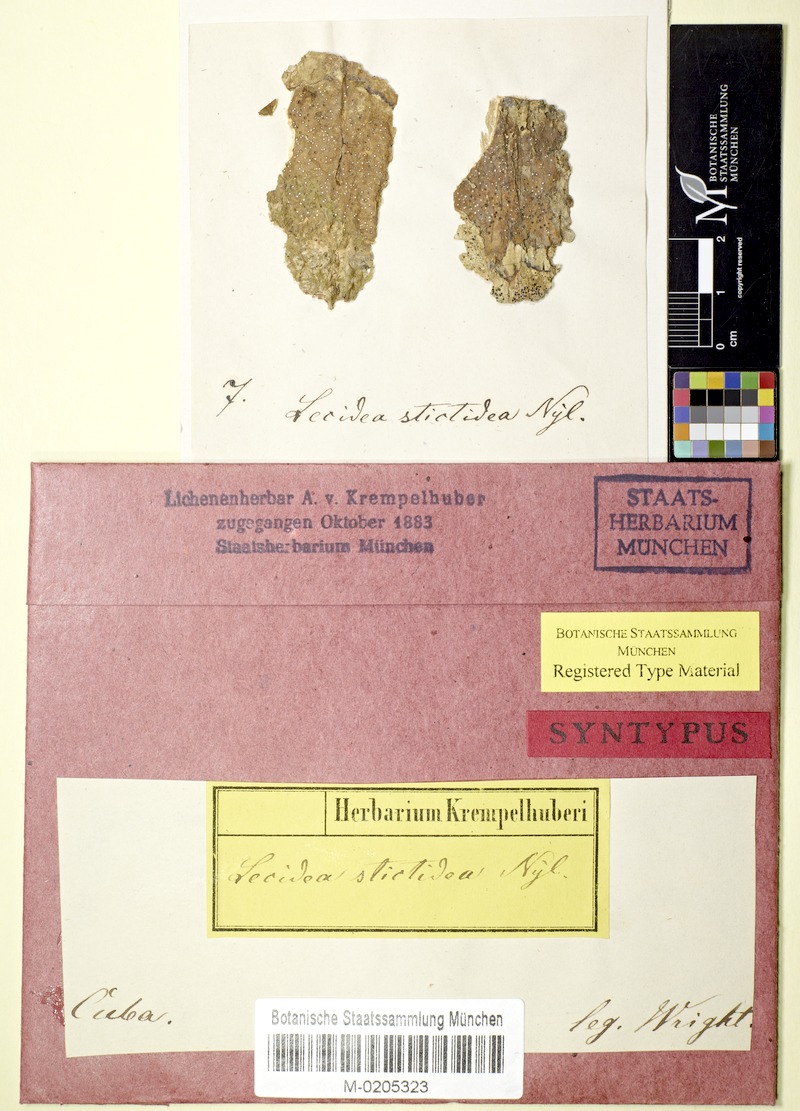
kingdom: Fungi
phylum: Ascomycota
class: Lecanoromycetes
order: Ostropales
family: Stictidaceae
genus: Trinathotrema
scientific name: Trinathotrema stictideum
